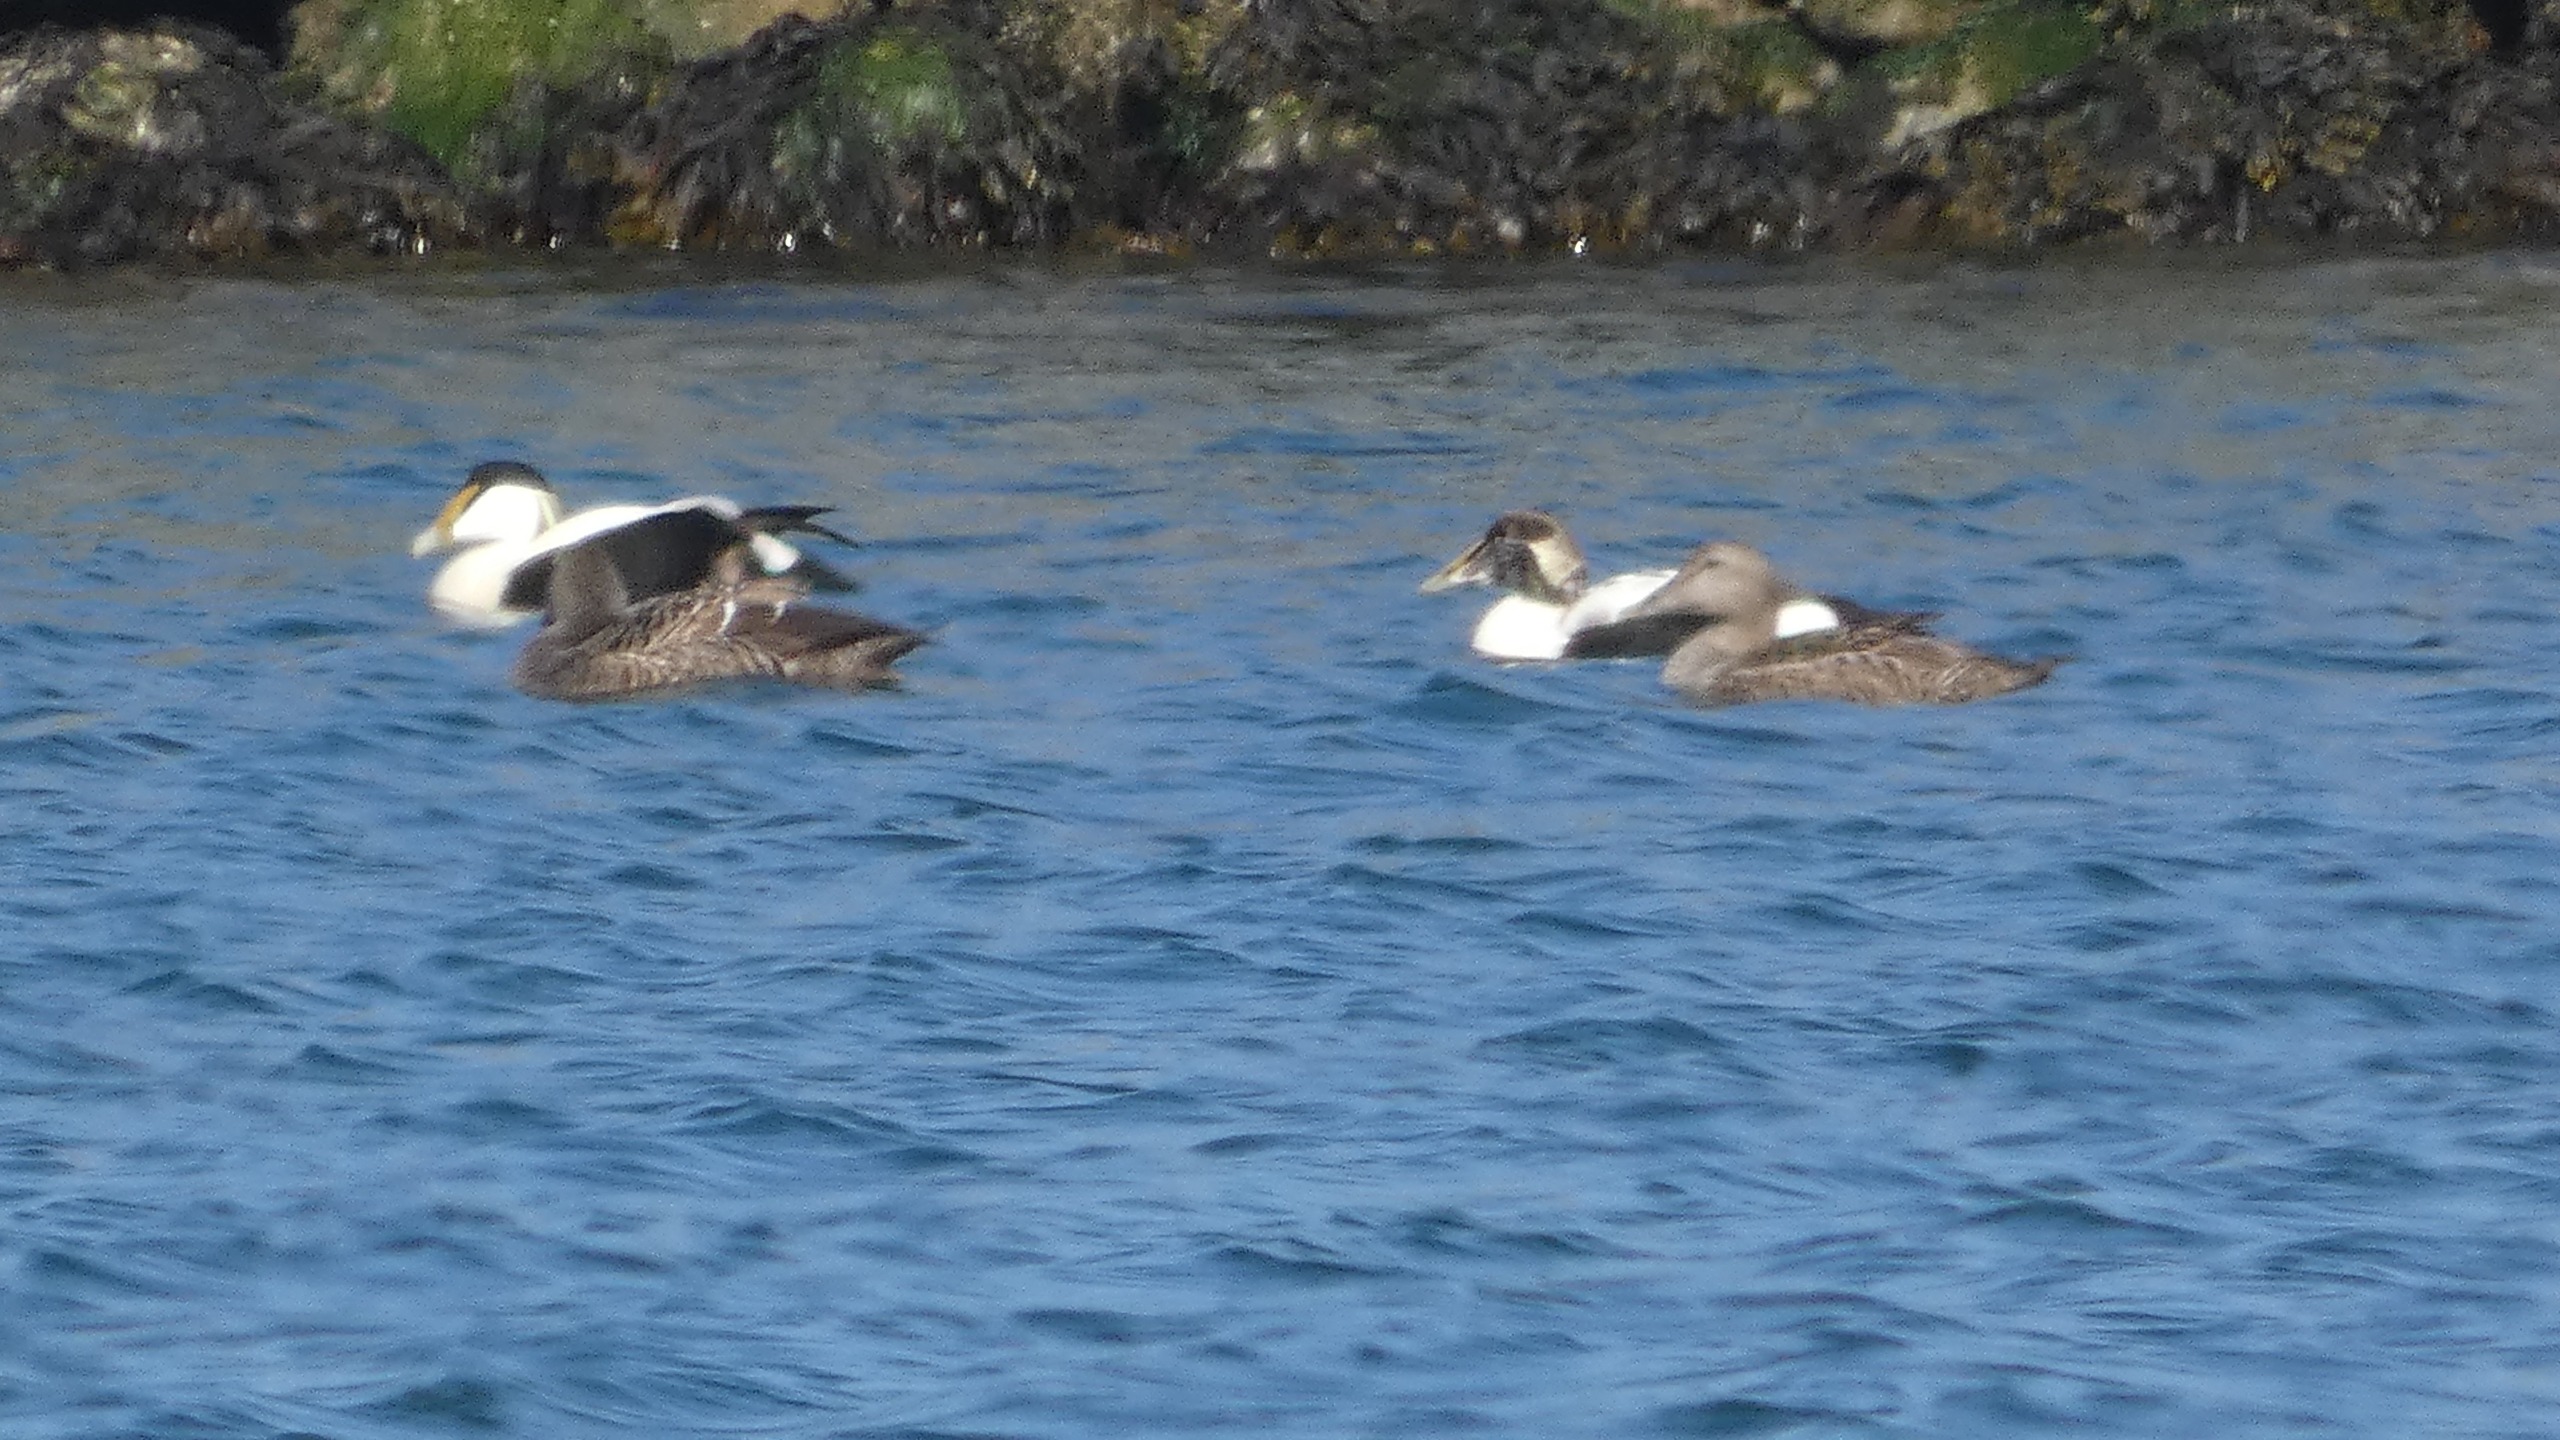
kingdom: Animalia
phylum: Chordata
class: Aves
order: Anseriformes
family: Anatidae
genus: Somateria
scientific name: Somateria mollissima
